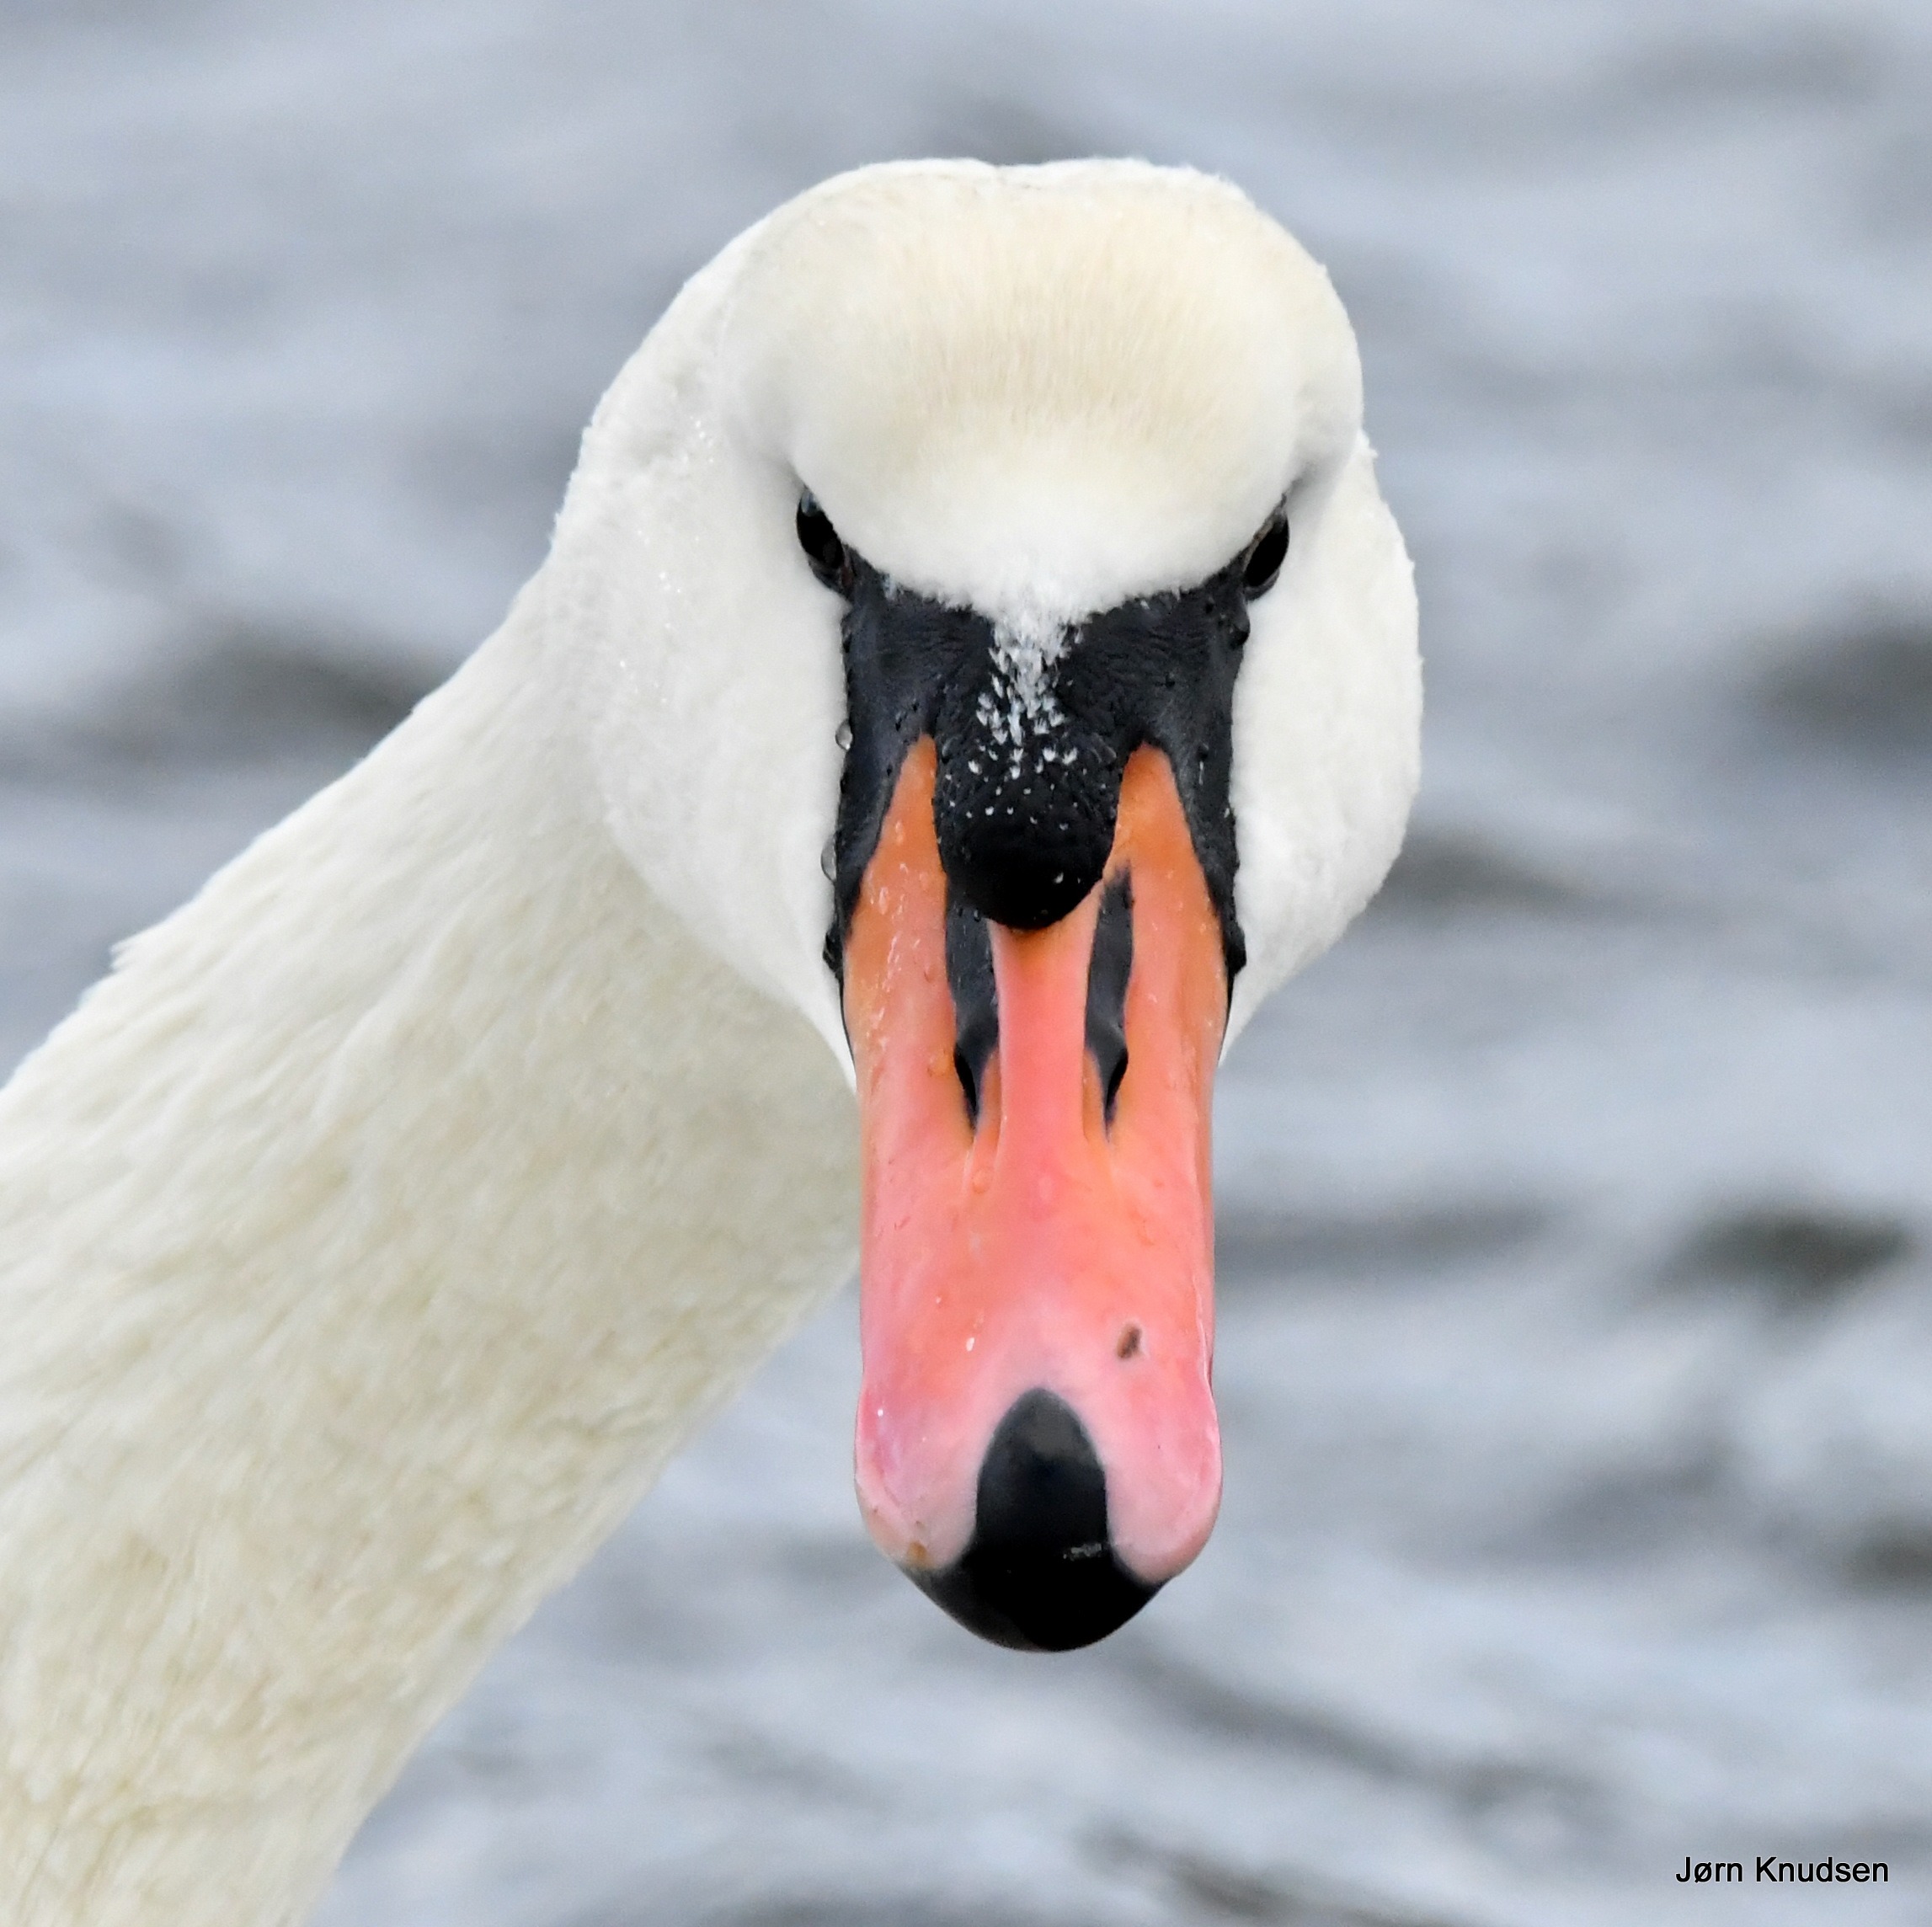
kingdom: Animalia
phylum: Chordata
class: Aves
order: Anseriformes
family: Anatidae
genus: Cygnus
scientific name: Cygnus olor
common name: Knopsvane
